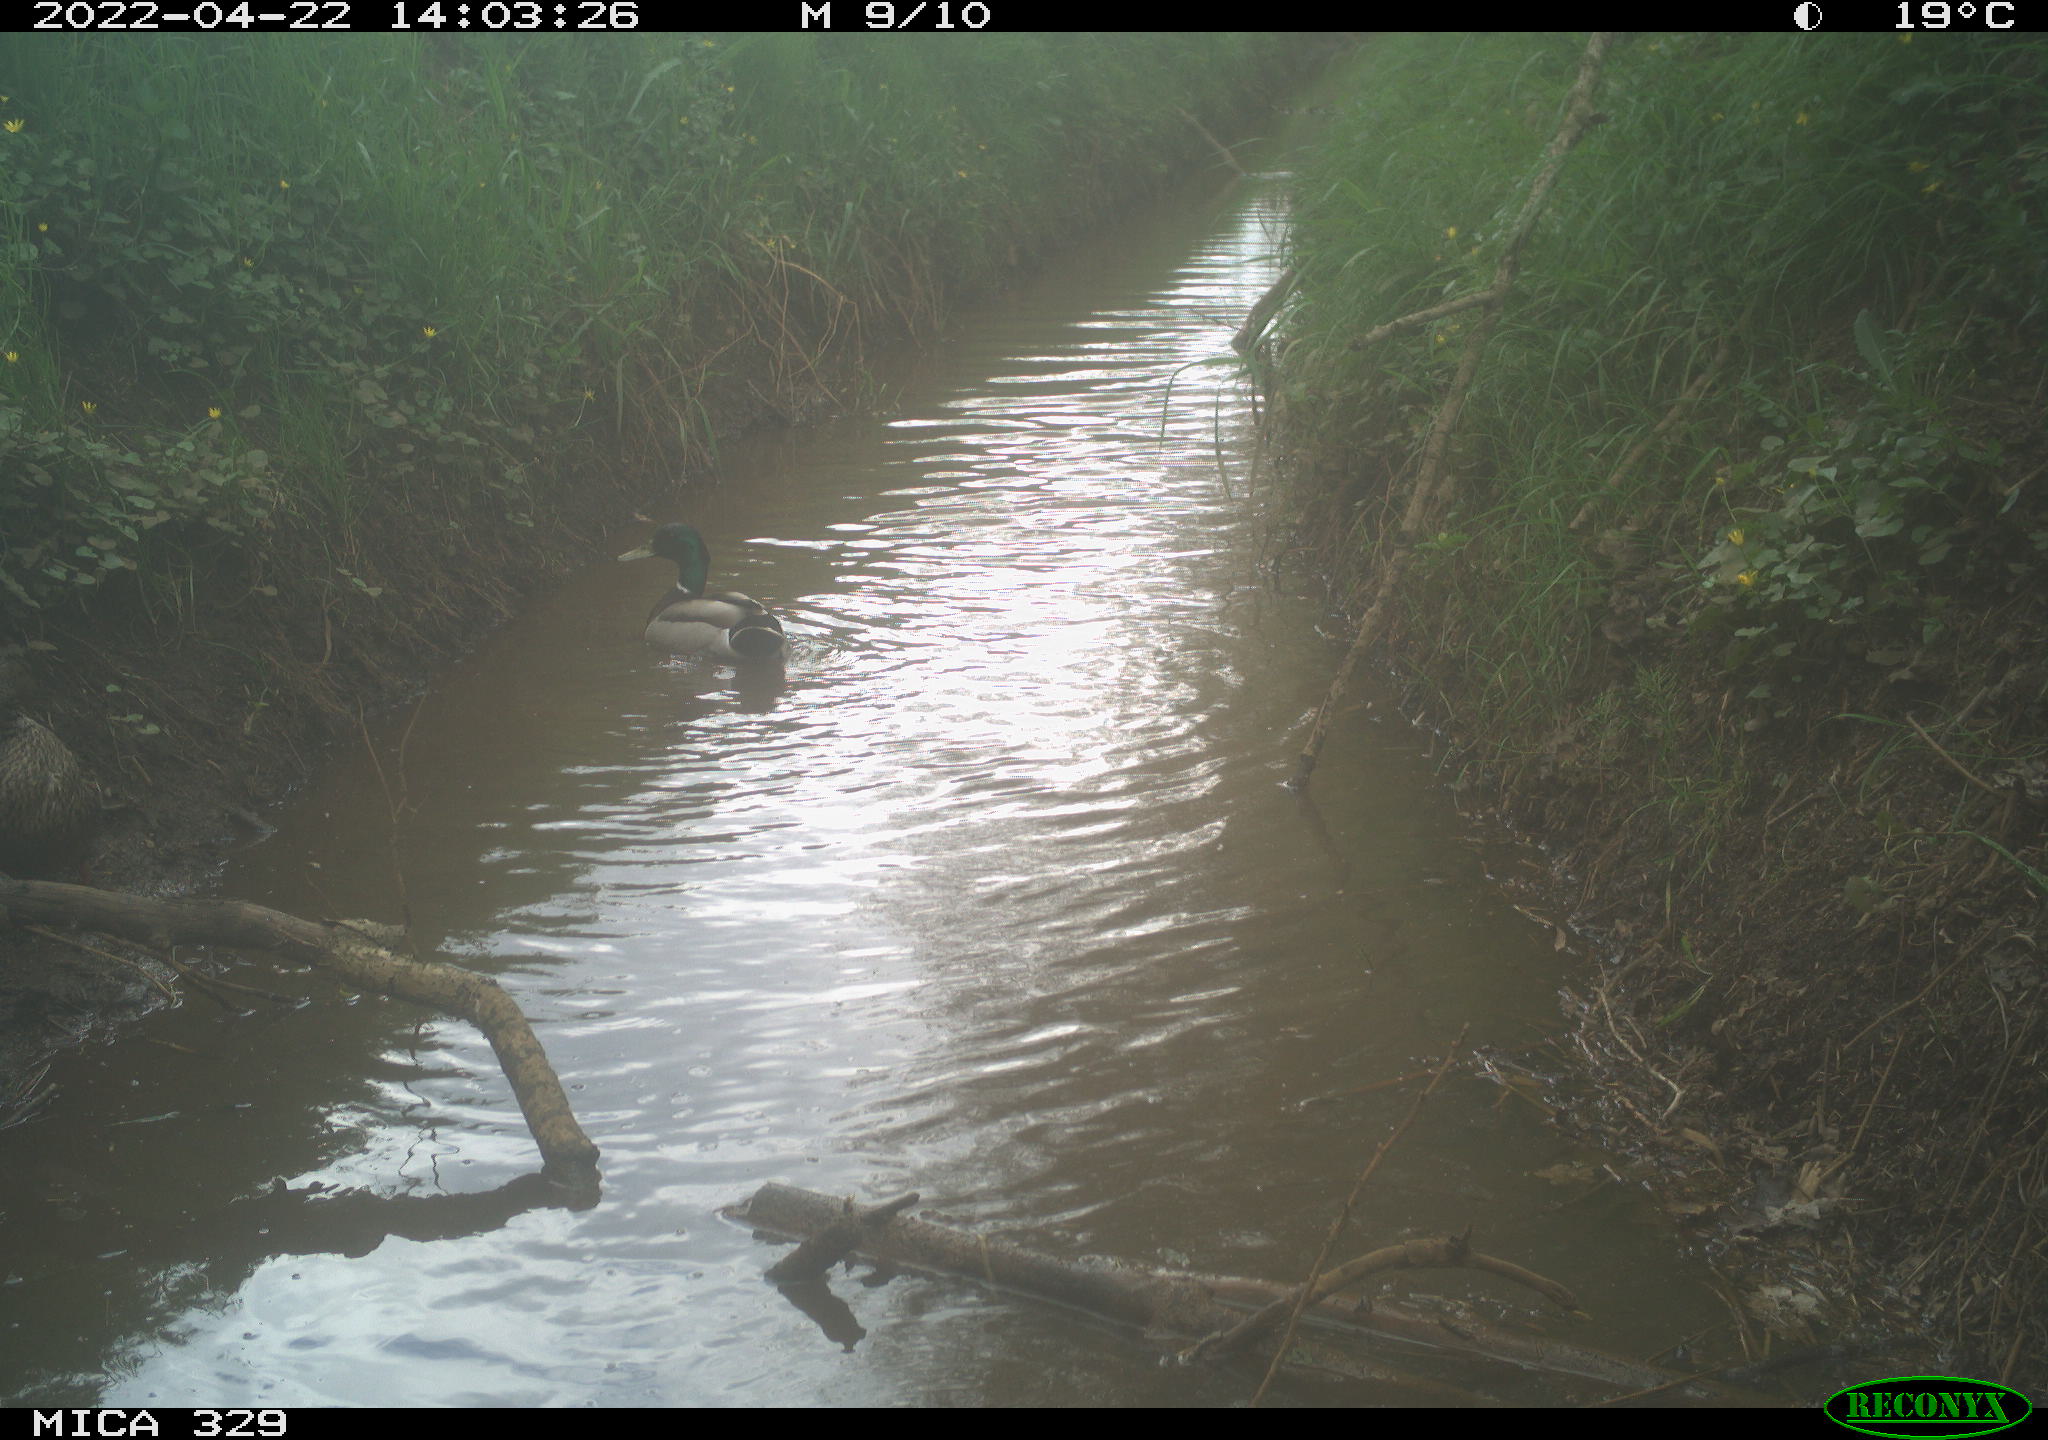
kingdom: Animalia
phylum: Chordata
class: Aves
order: Anseriformes
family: Anatidae
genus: Anas
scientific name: Anas platyrhynchos
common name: Mallard
